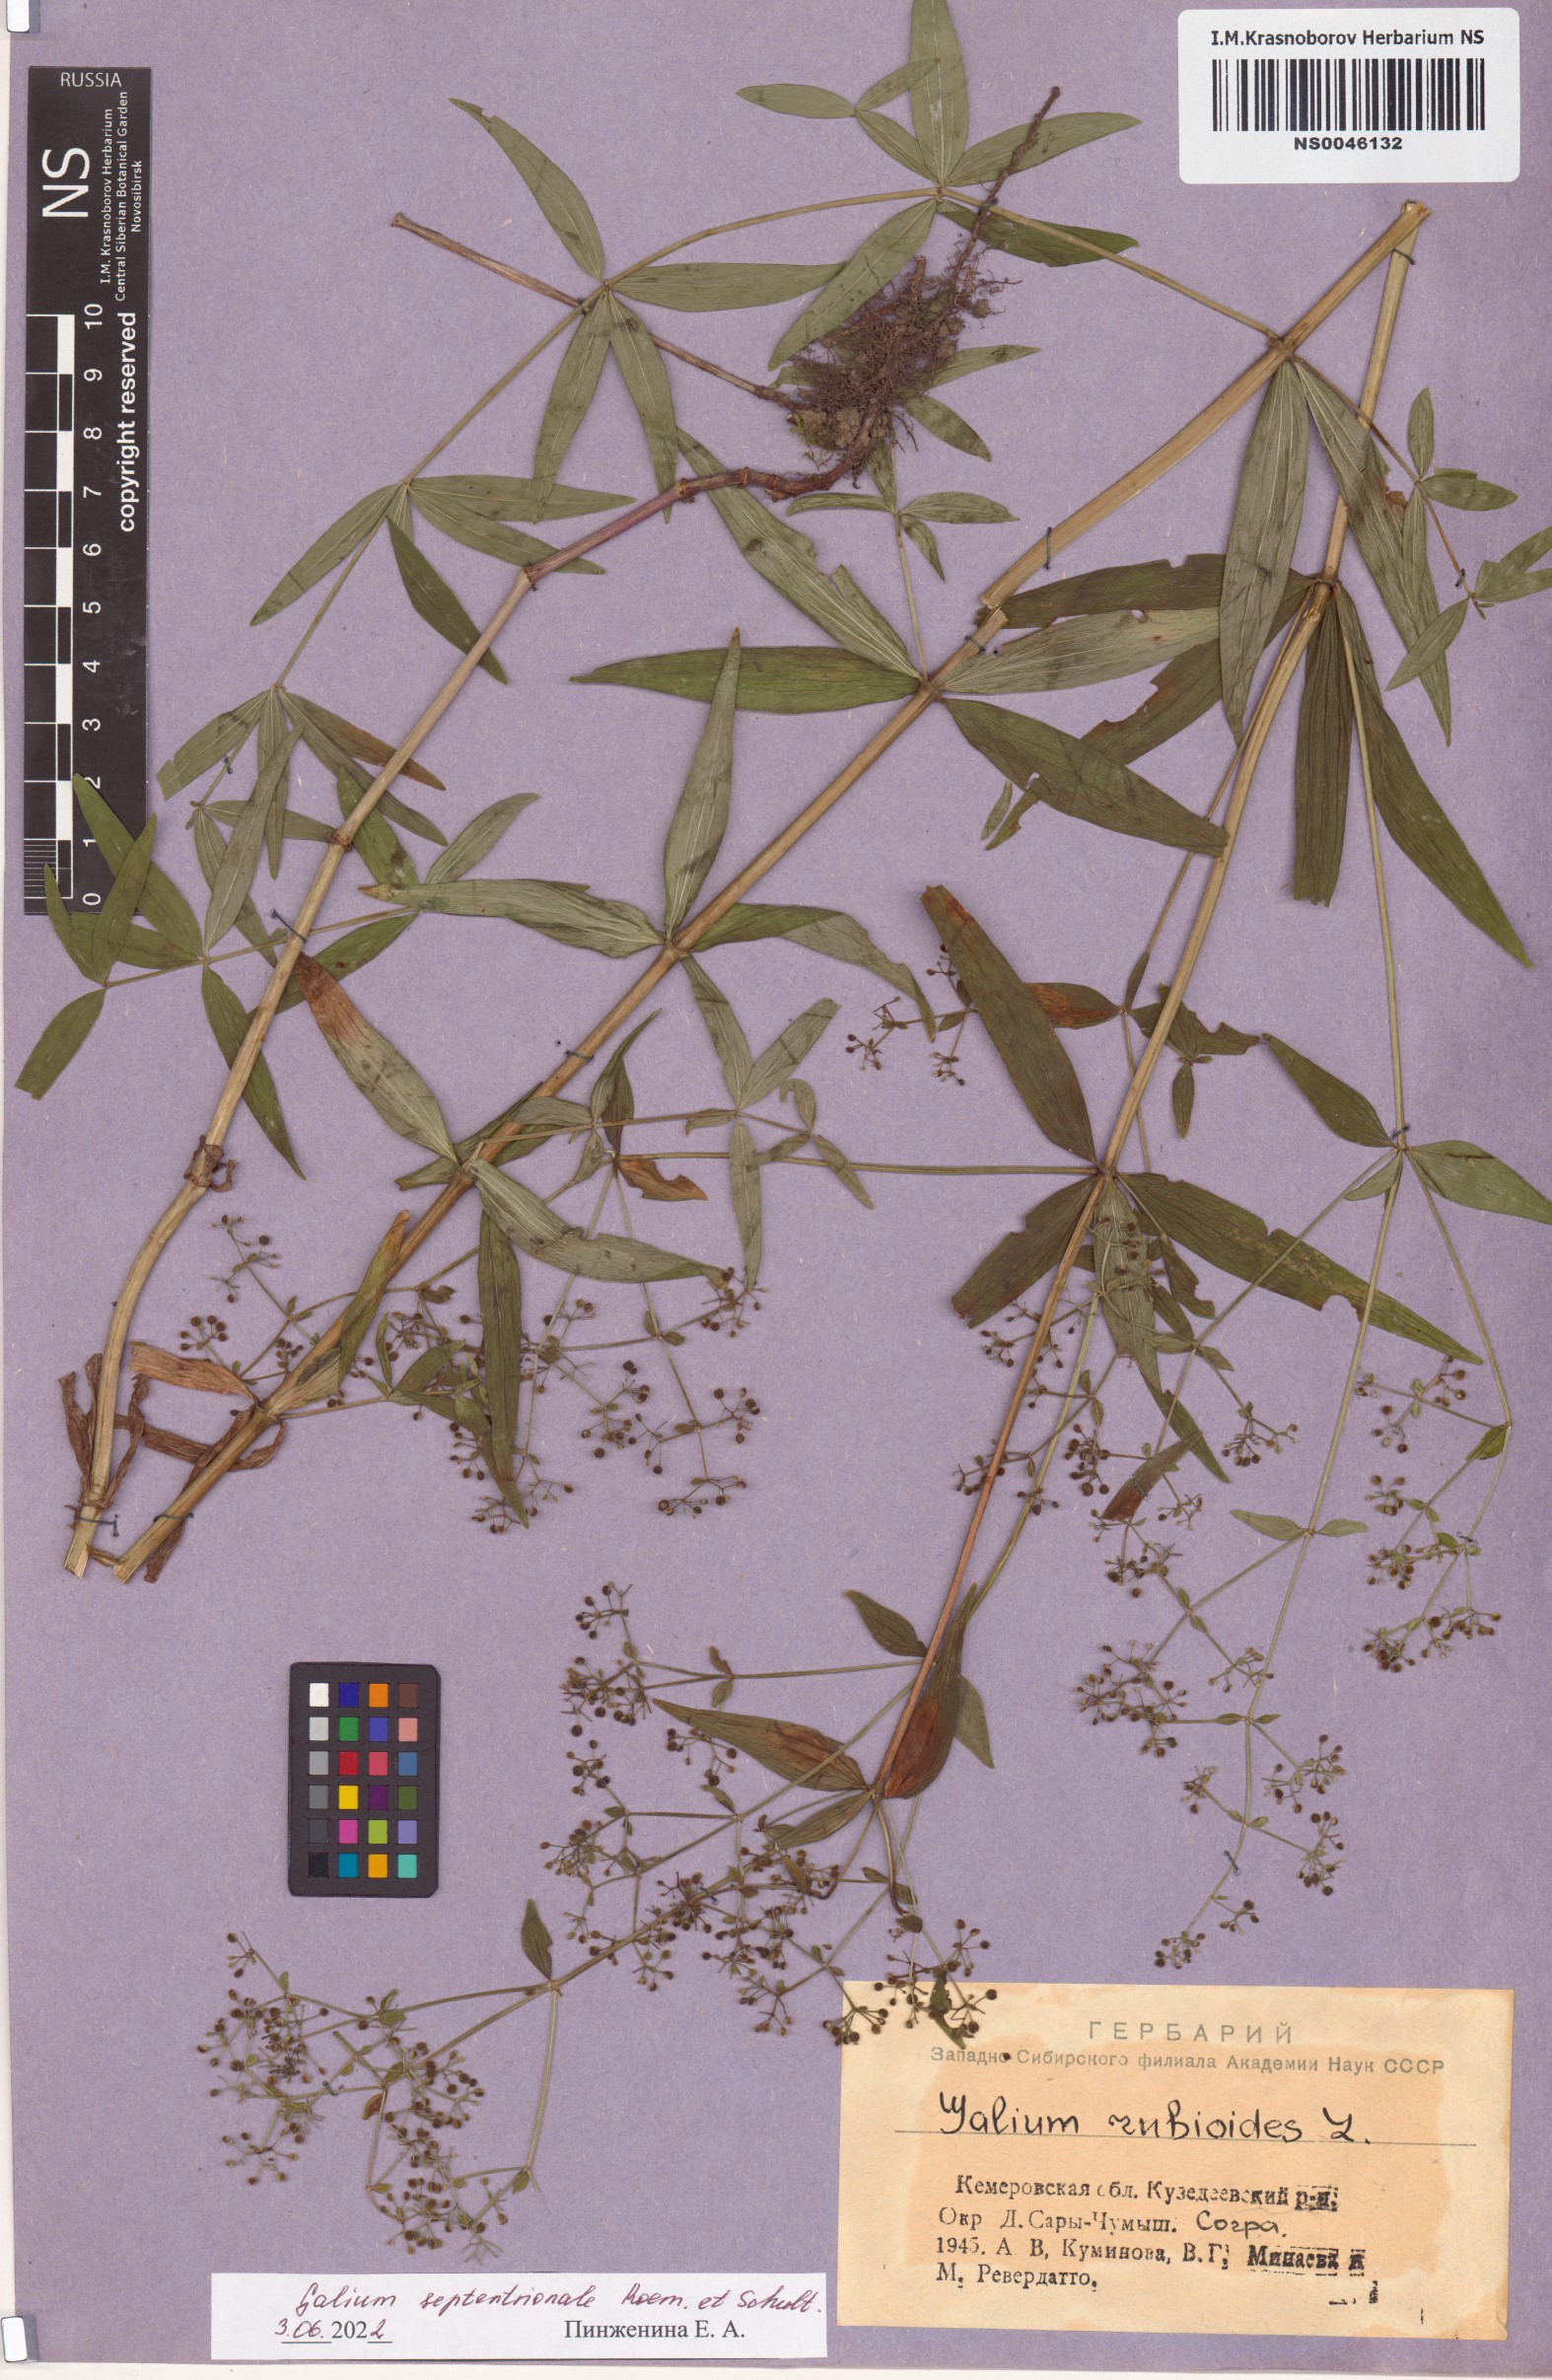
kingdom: Plantae
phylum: Tracheophyta
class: Magnoliopsida
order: Gentianales
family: Rubiaceae
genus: Galium
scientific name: Galium boreale
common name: Northern bedstraw
